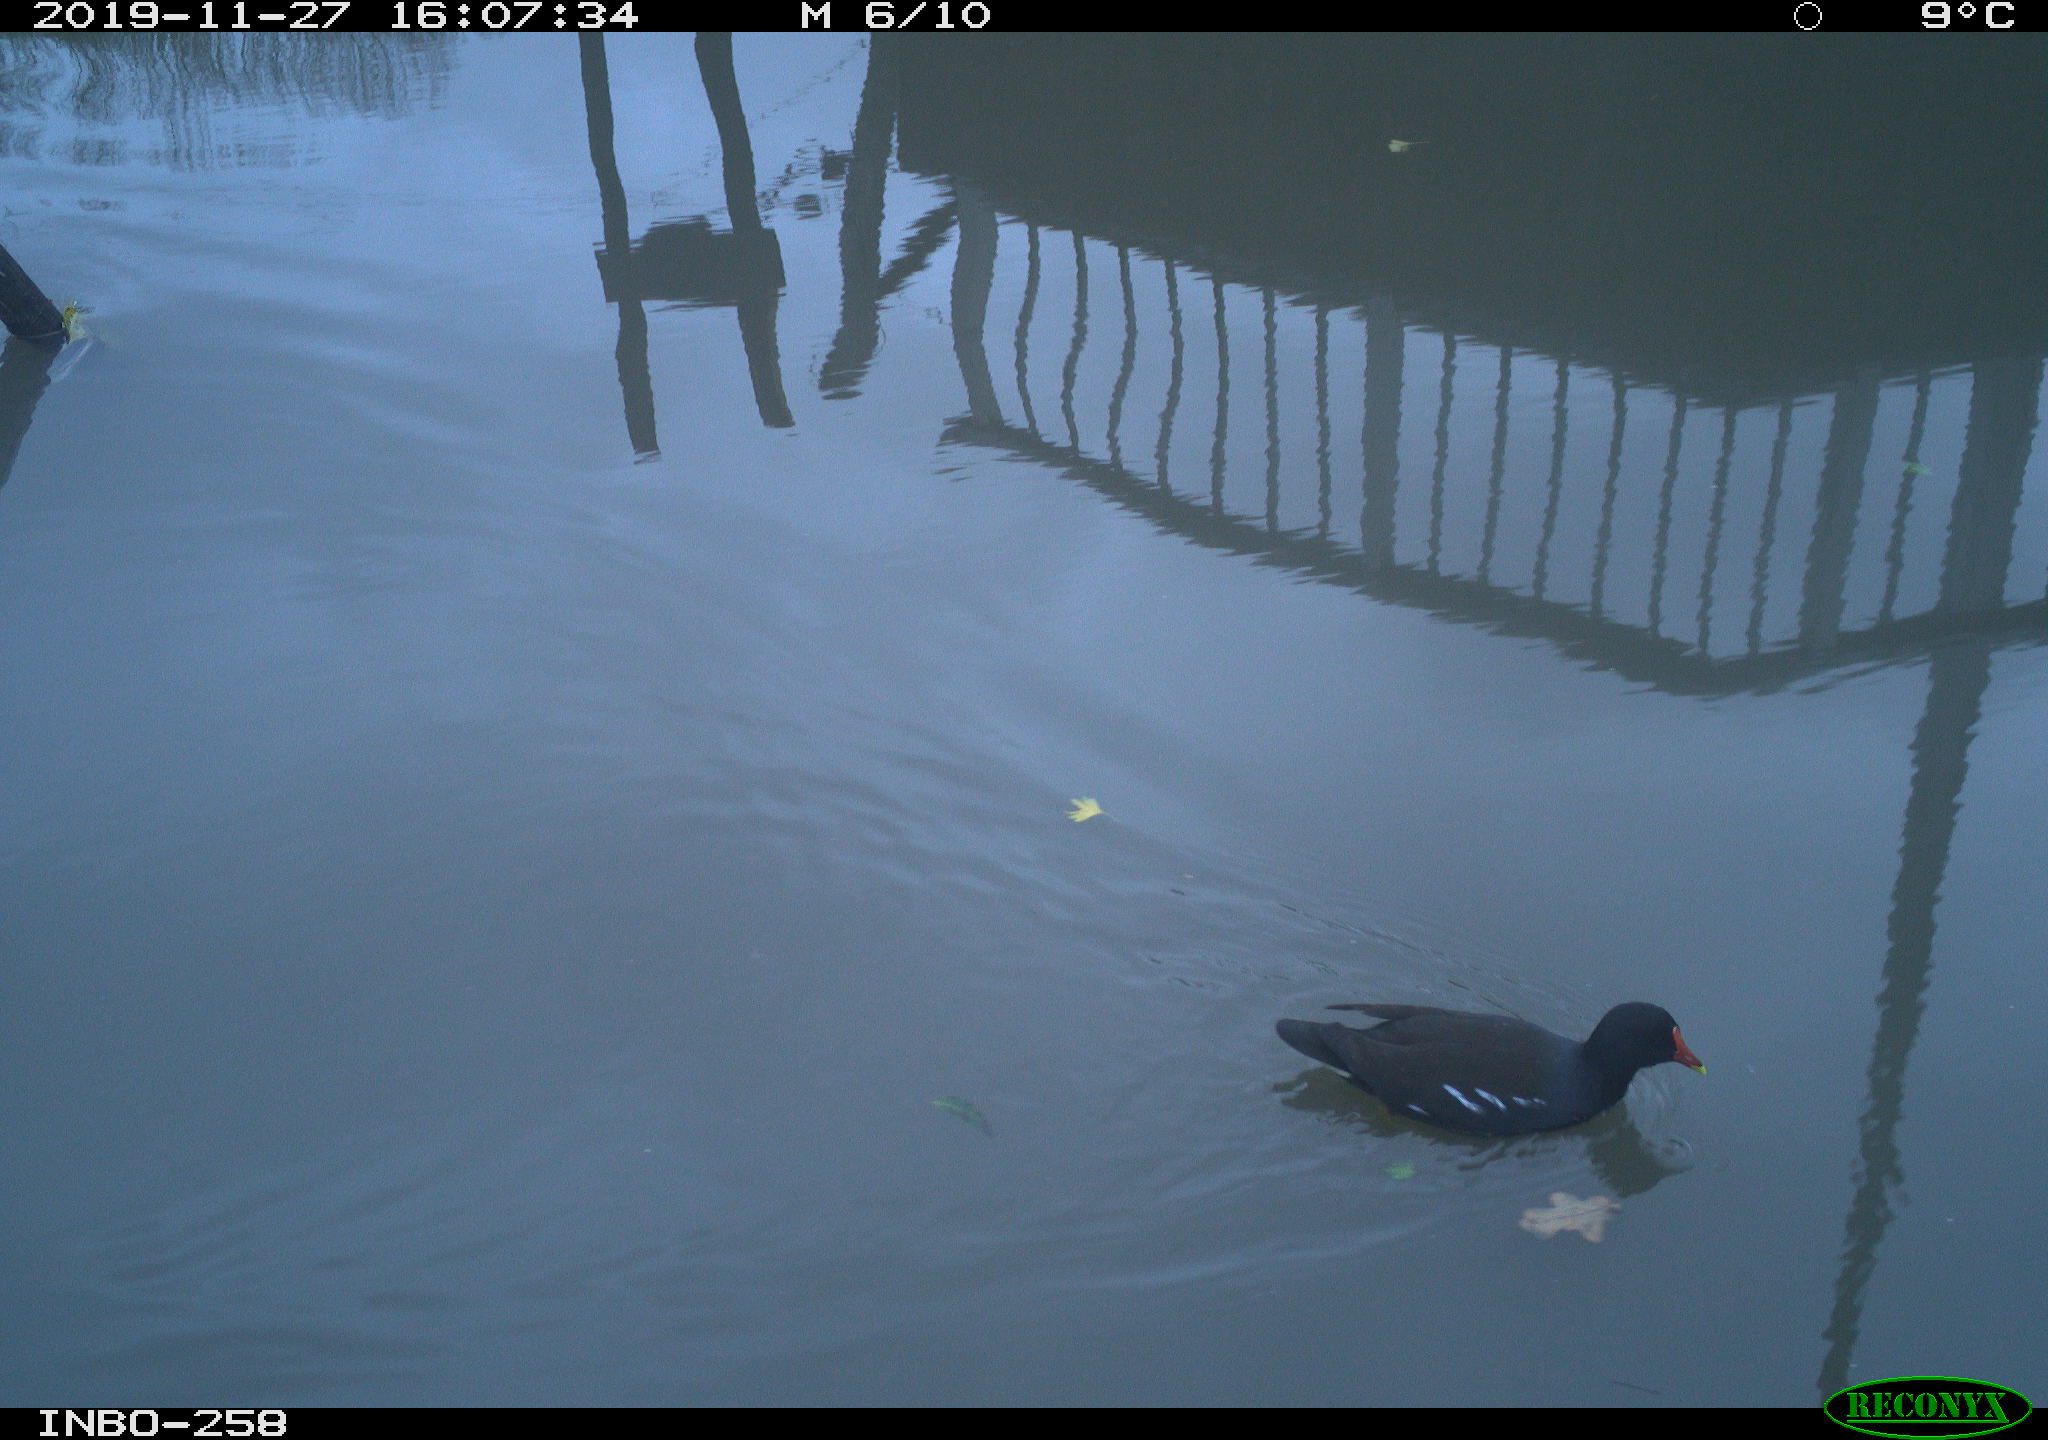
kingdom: Animalia
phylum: Chordata
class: Aves
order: Gruiformes
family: Rallidae
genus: Gallinula
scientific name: Gallinula chloropus
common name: Common moorhen
